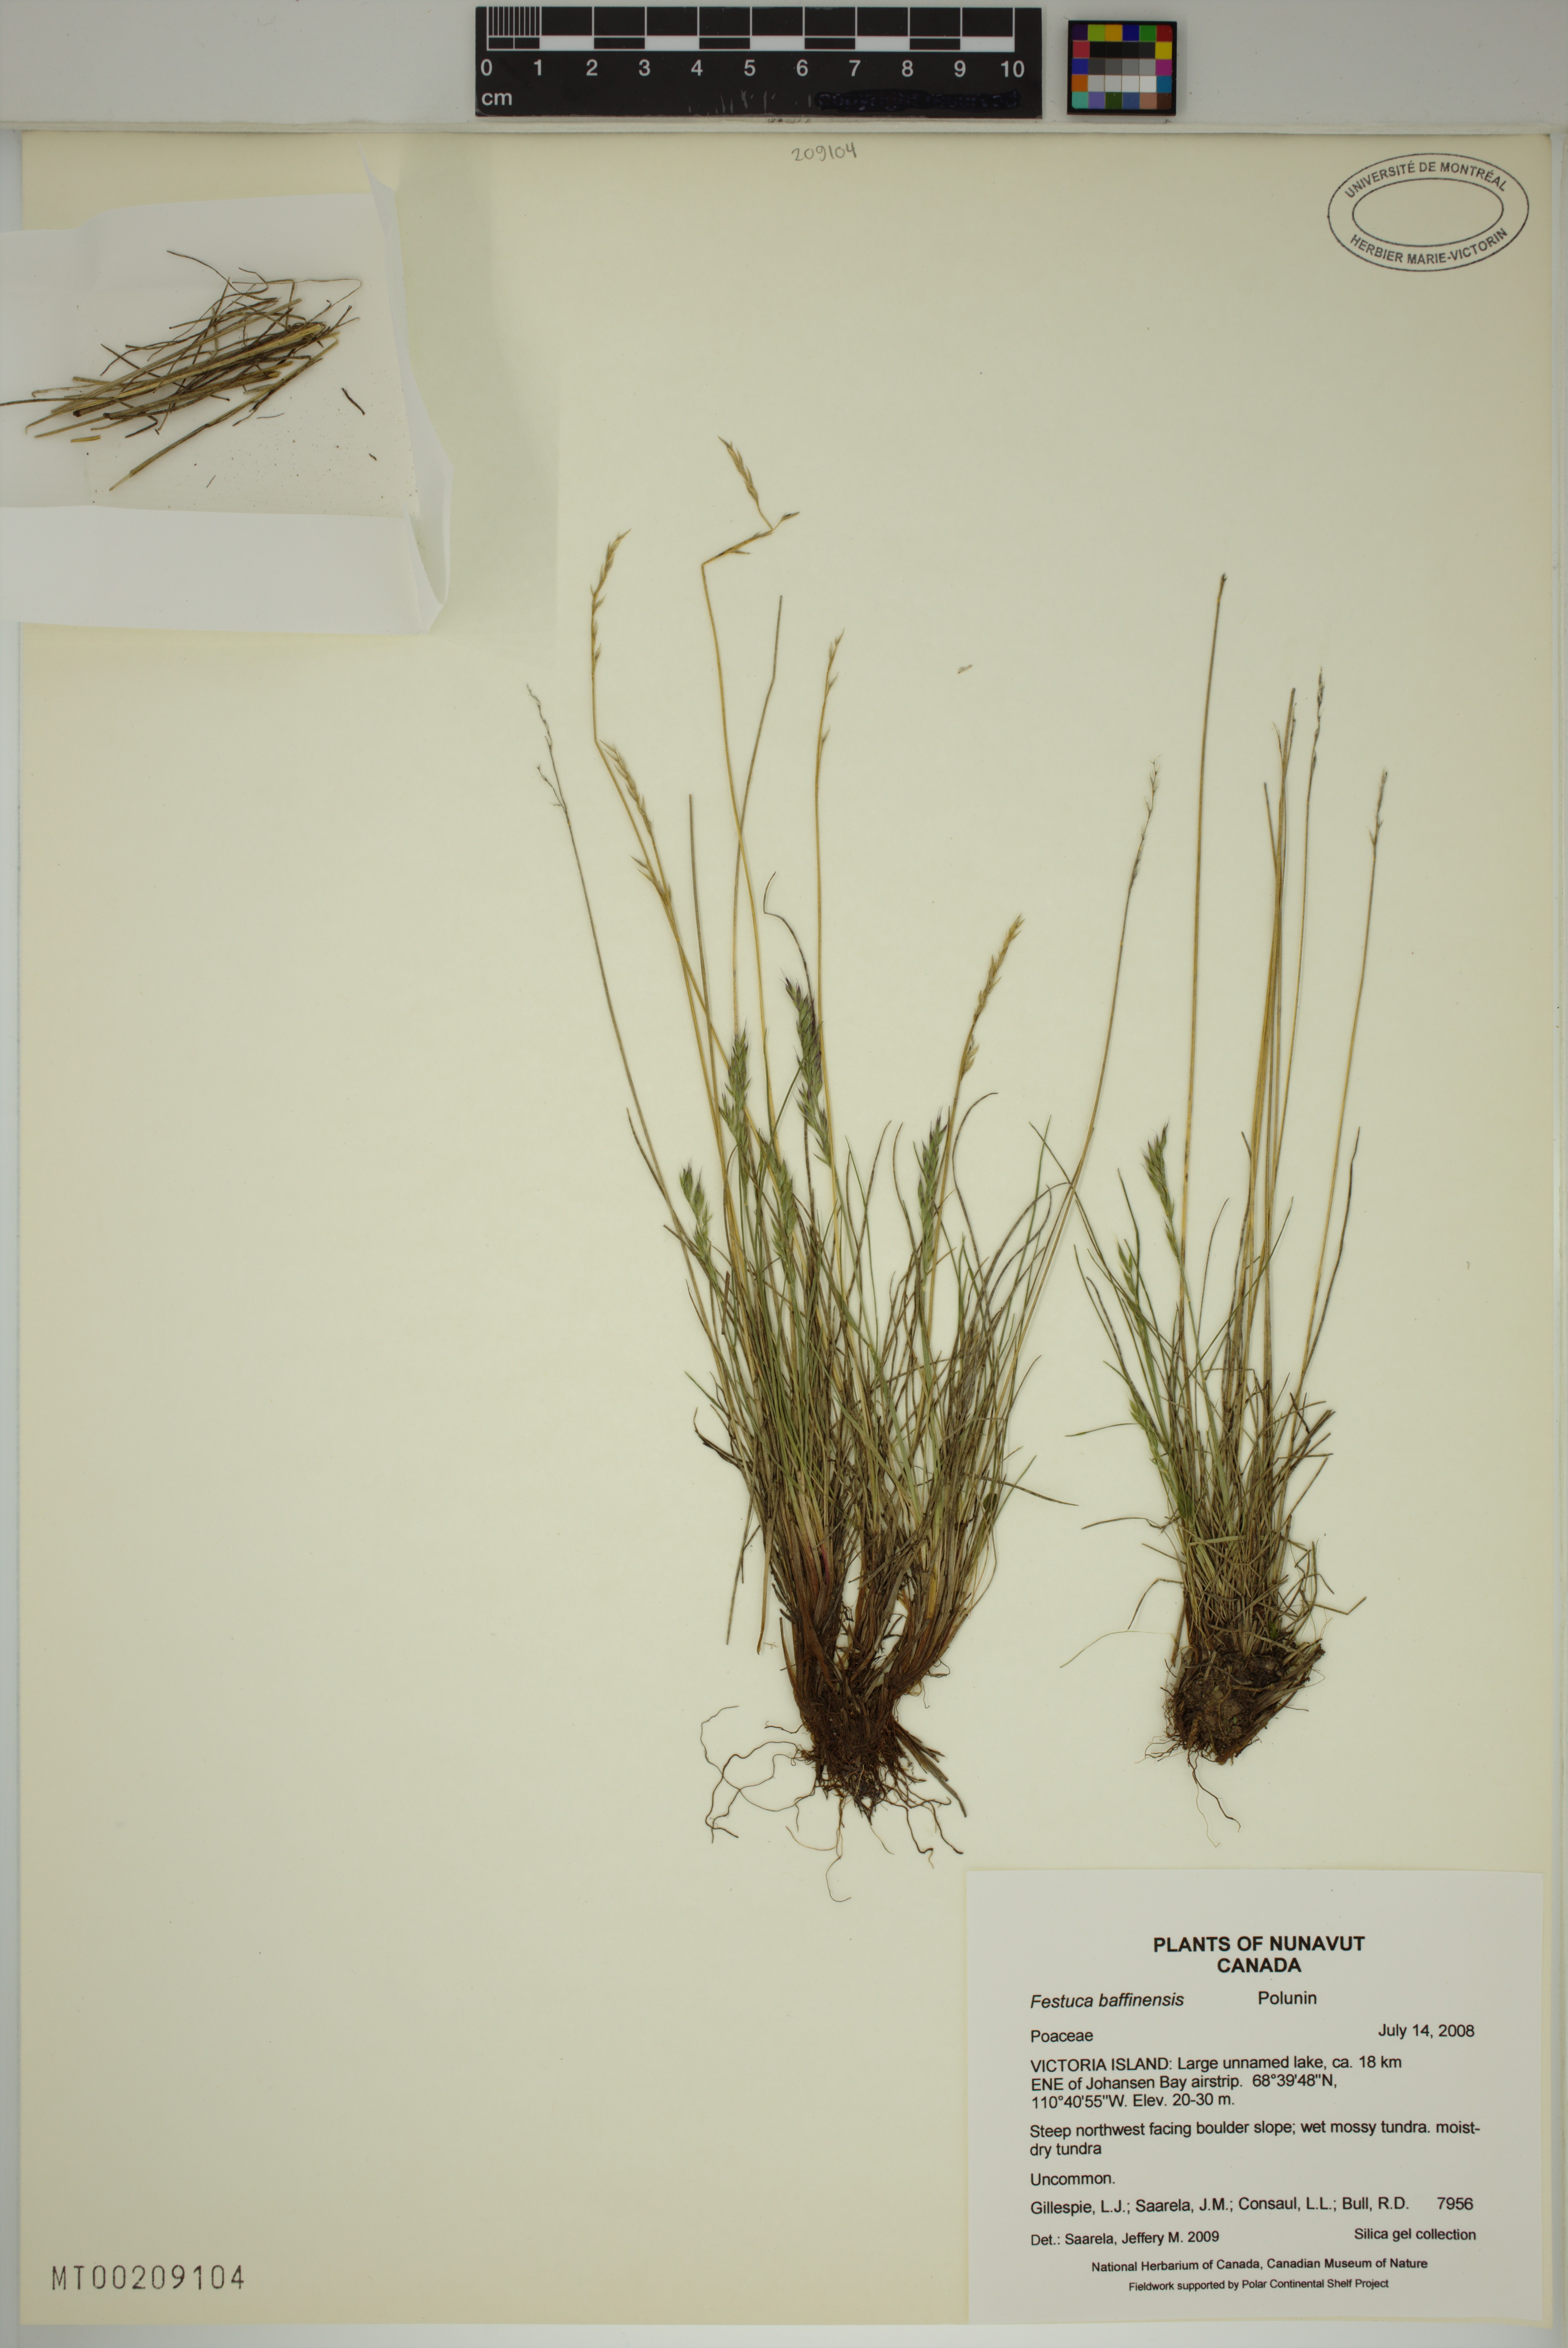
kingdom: Plantae
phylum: Tracheophyta
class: Liliopsida
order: Poales
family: Poaceae
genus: Festuca
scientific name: Festuca baffinensis
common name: Baffin island fescue
